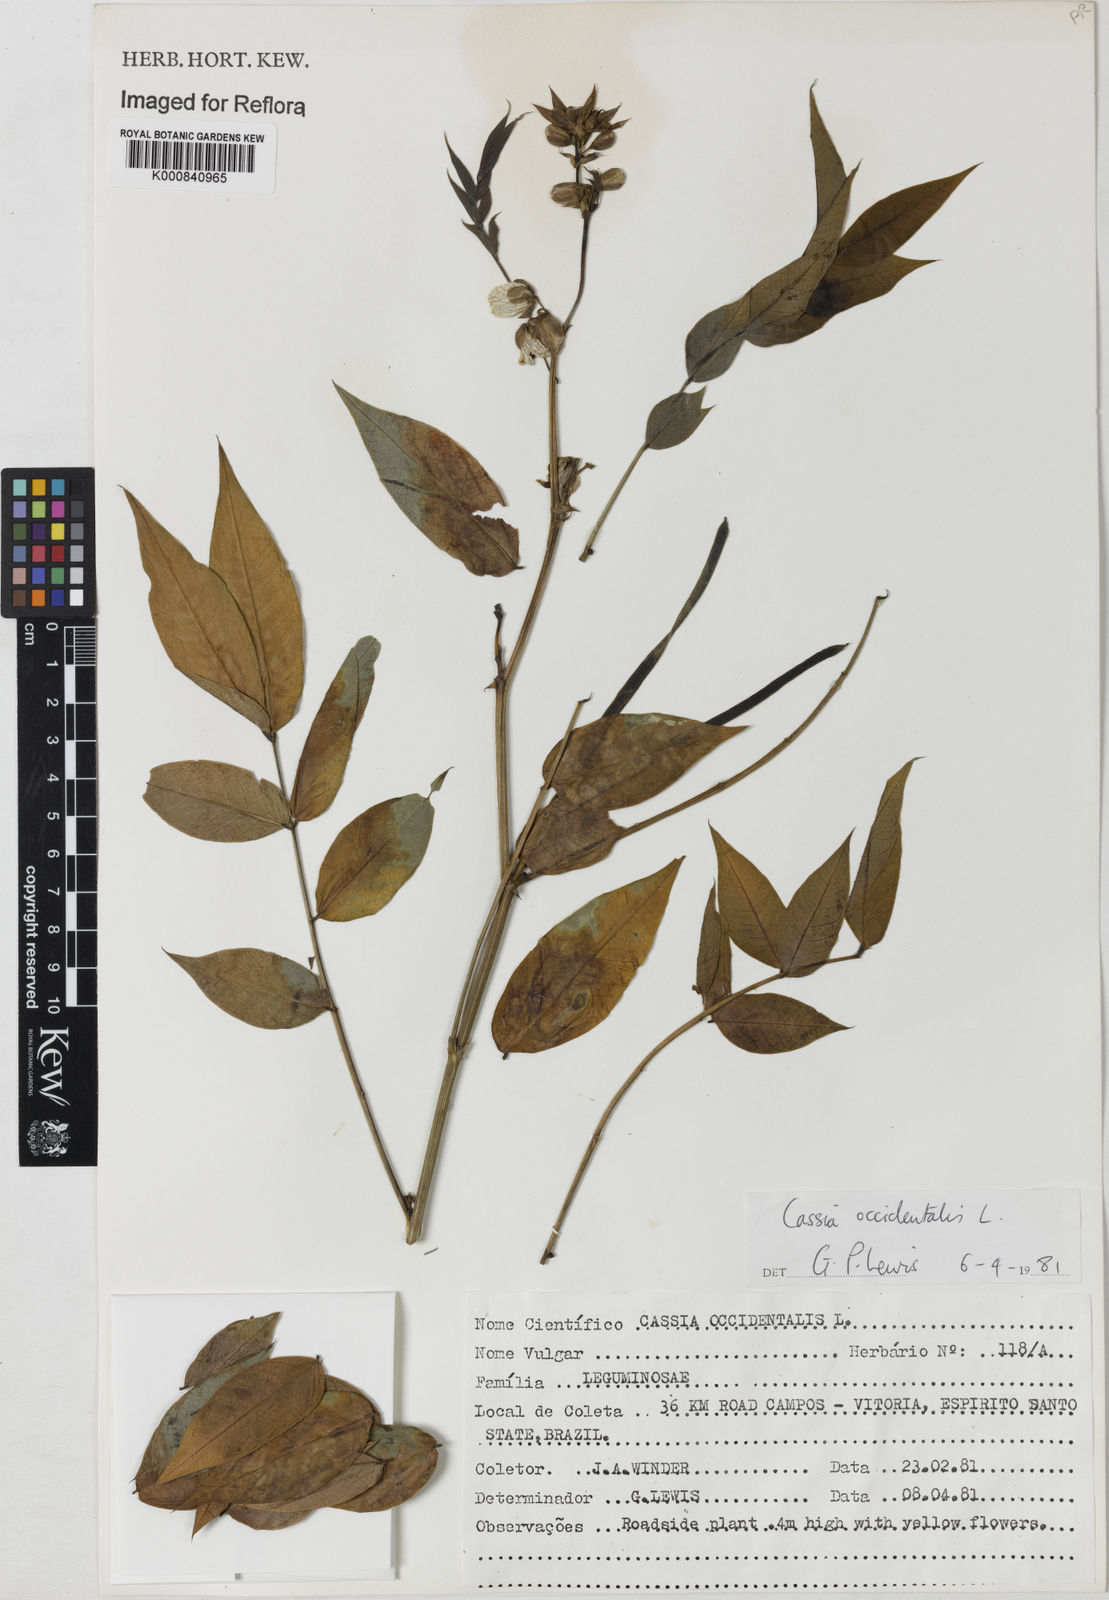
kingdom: Plantae
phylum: Tracheophyta
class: Magnoliopsida
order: Fabales
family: Fabaceae
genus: Senna
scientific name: Senna occidentalis
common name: Septicweed
